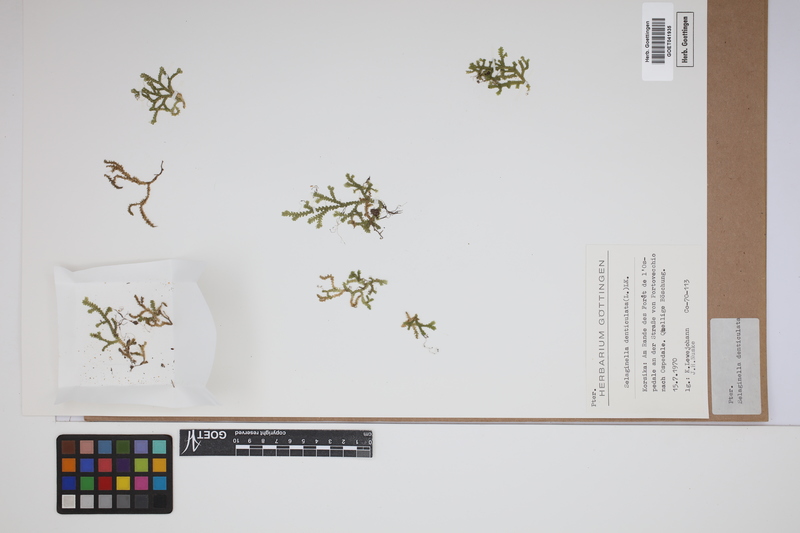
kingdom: Plantae
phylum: Tracheophyta
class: Lycopodiopsida
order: Selaginellales
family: Selaginellaceae
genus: Selaginella
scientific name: Selaginella denticulata
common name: Toothed-leaved clubmoss
